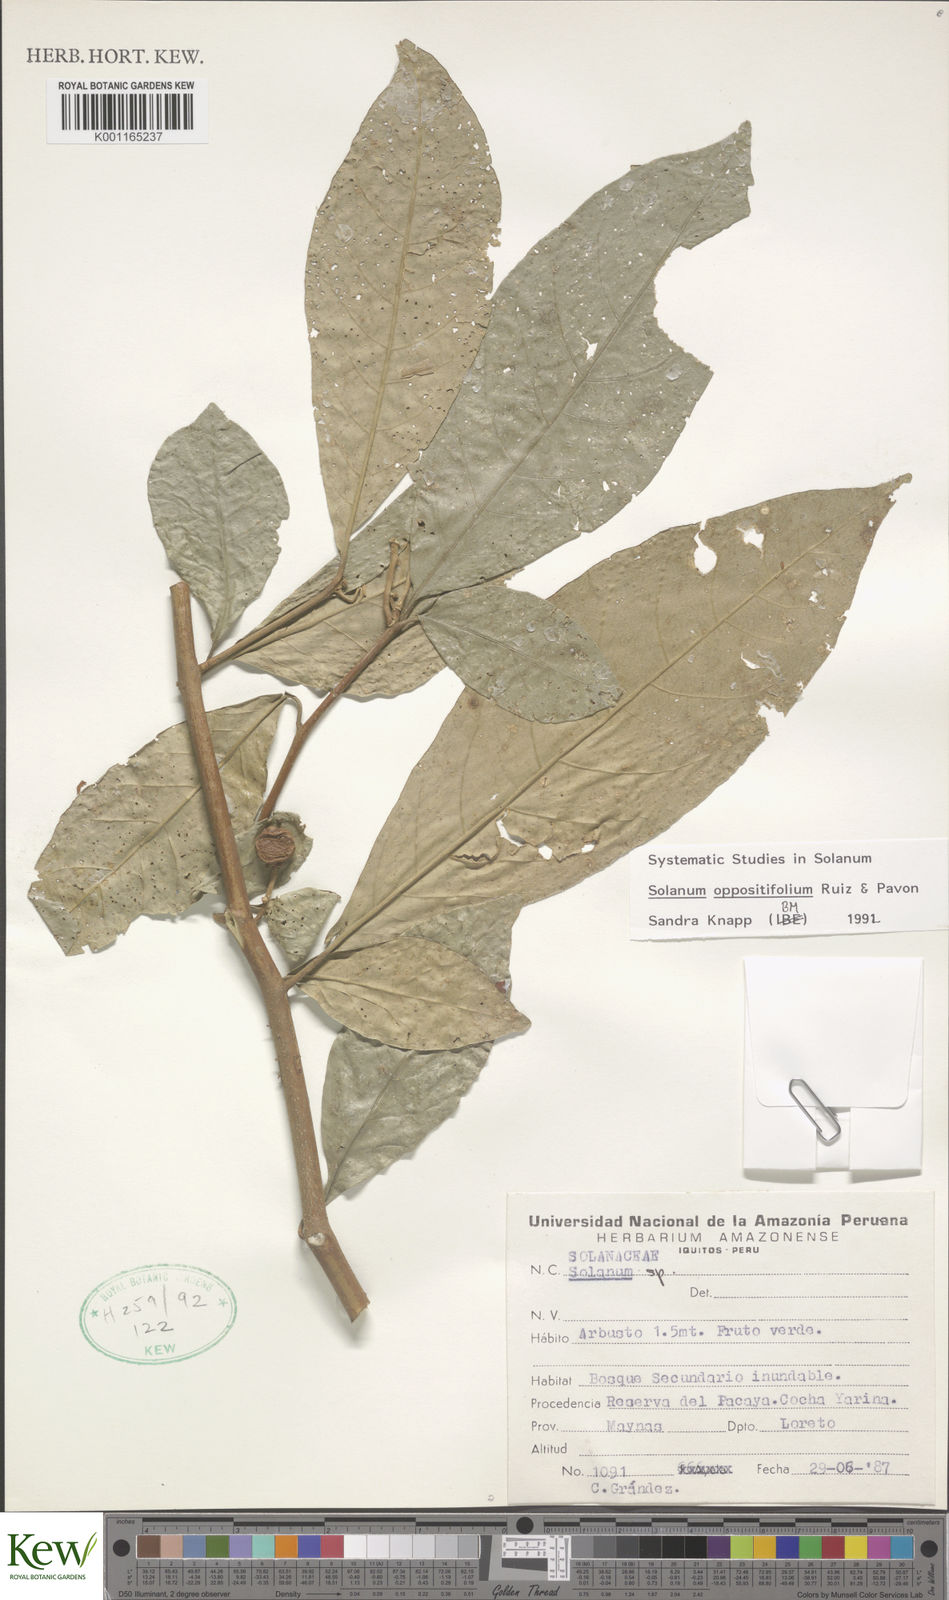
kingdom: Plantae
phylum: Tracheophyta
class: Magnoliopsida
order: Solanales
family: Solanaceae
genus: Solanum
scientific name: Solanum oppositifolium
